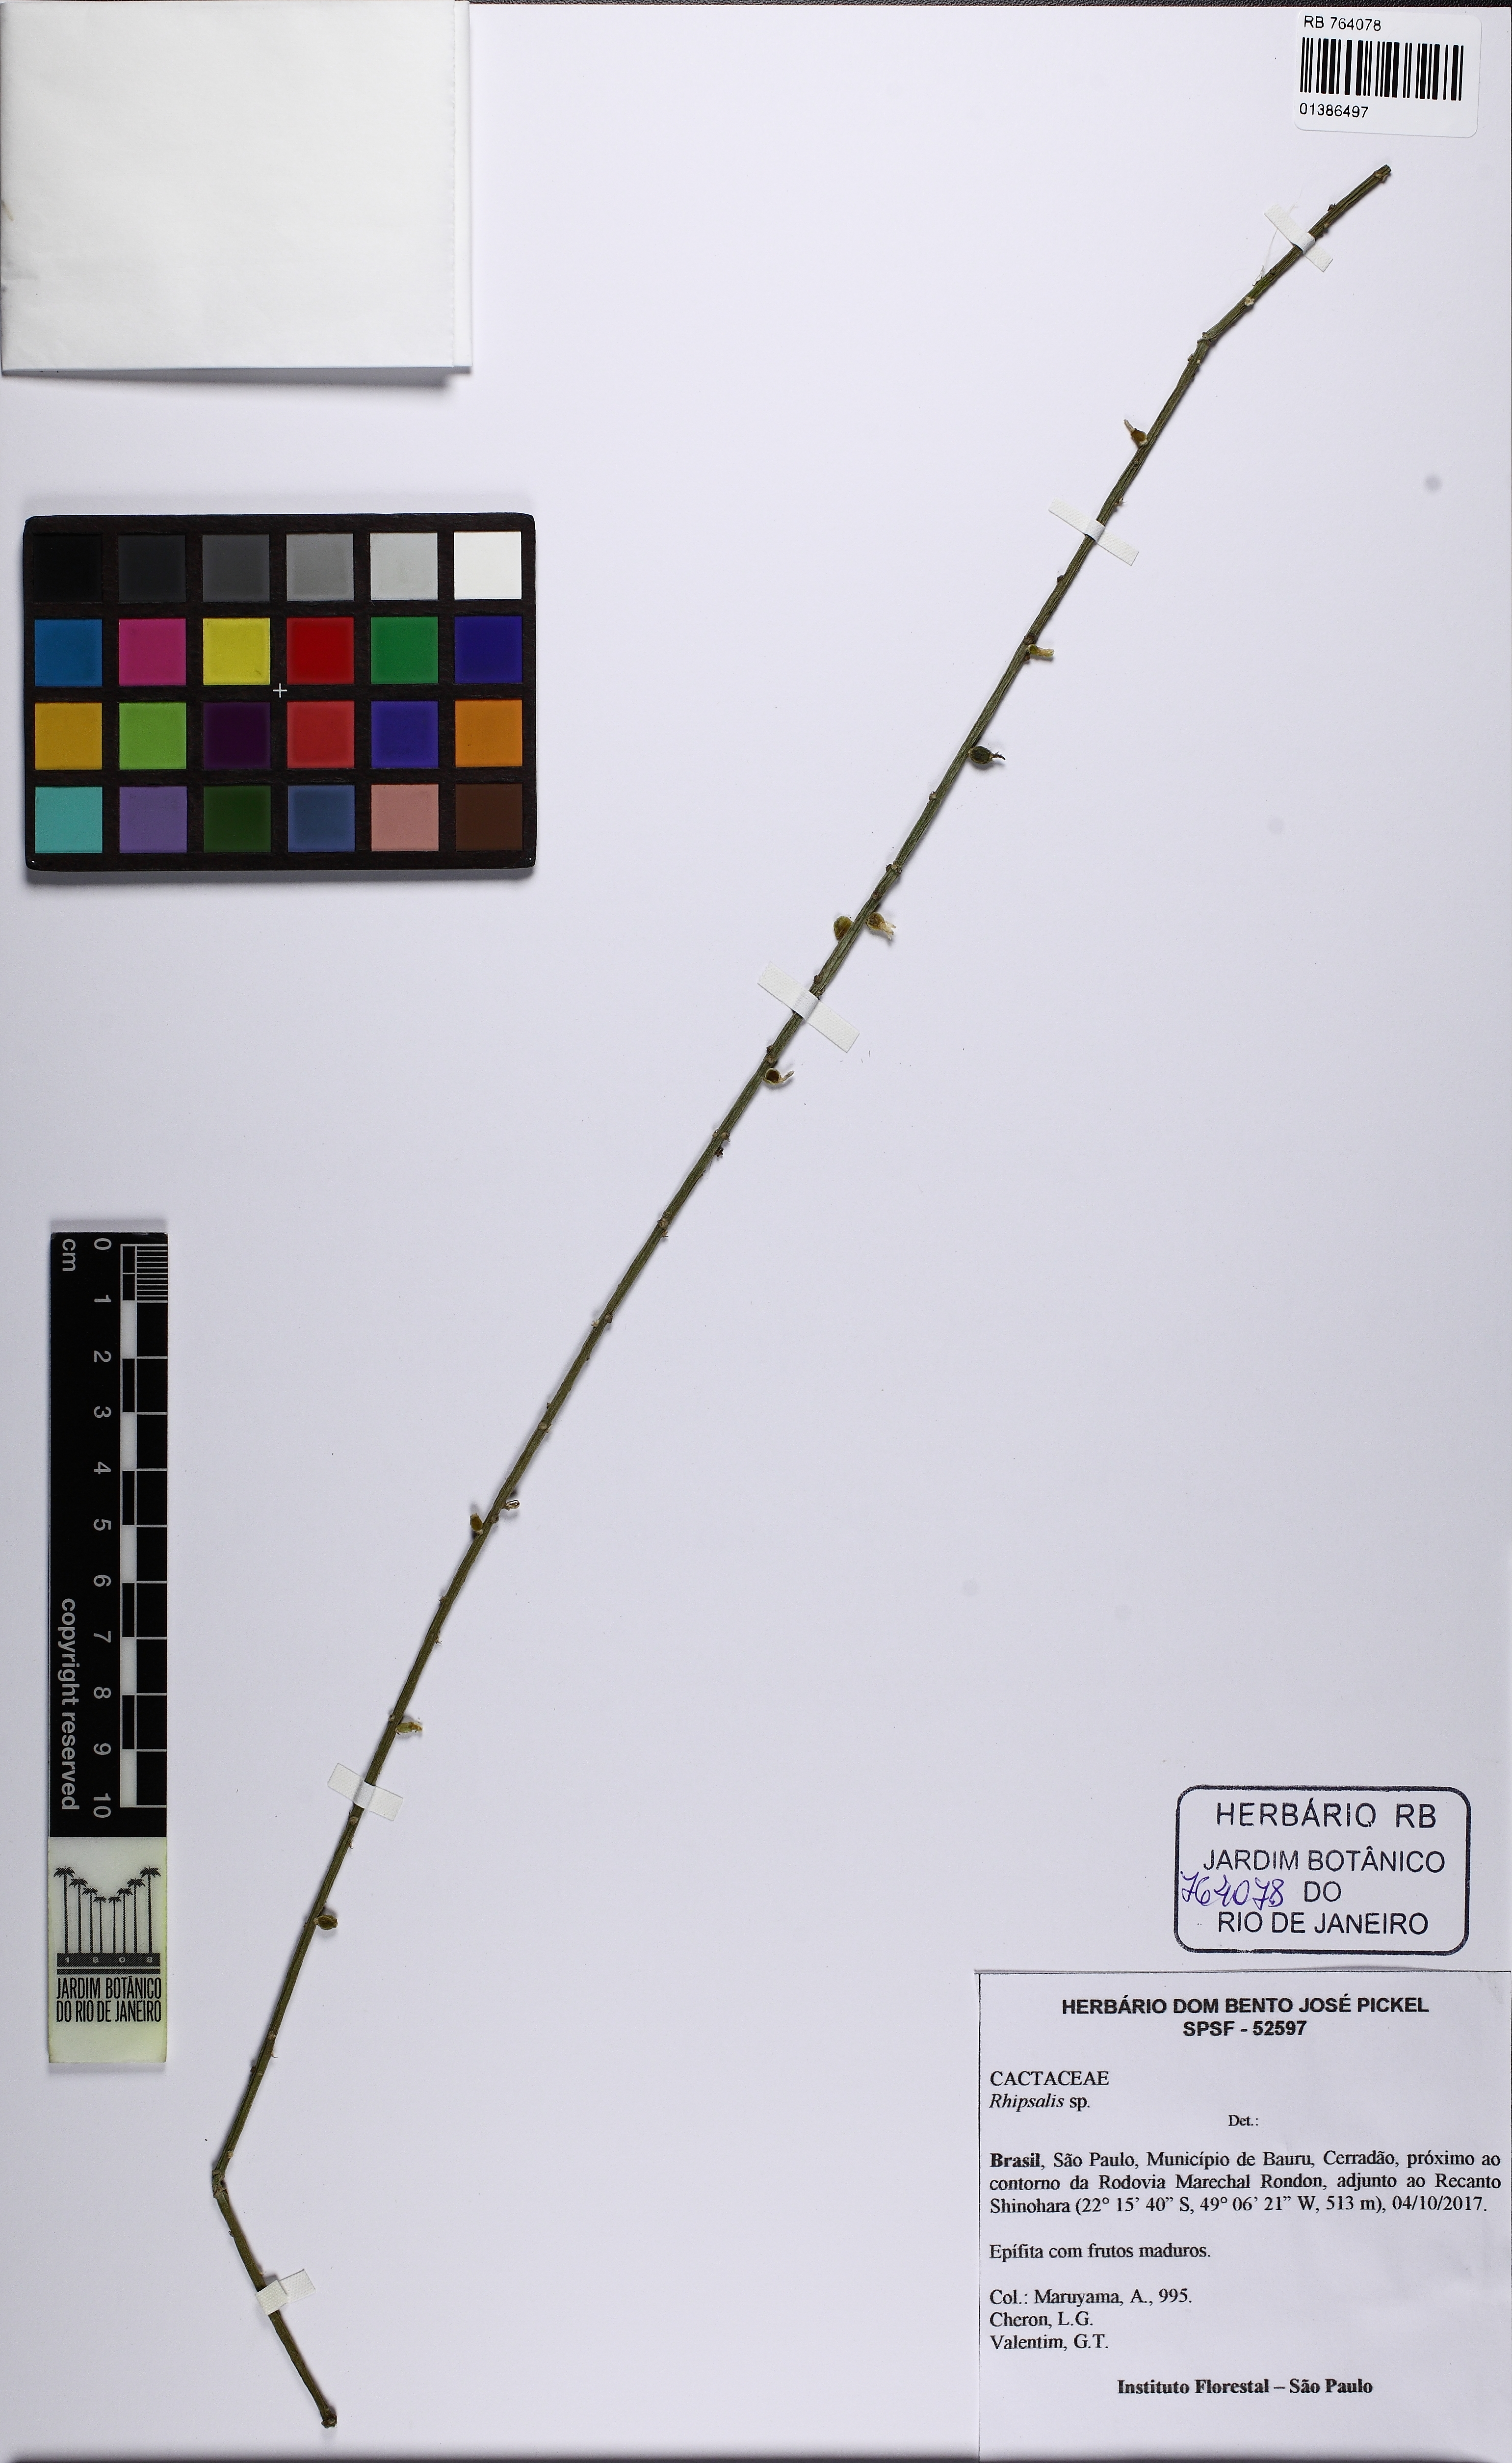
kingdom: Plantae
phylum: Tracheophyta
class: Magnoliopsida
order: Caryophyllales
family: Cactaceae
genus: Rhipsalis
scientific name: Rhipsalis lindbergiana
